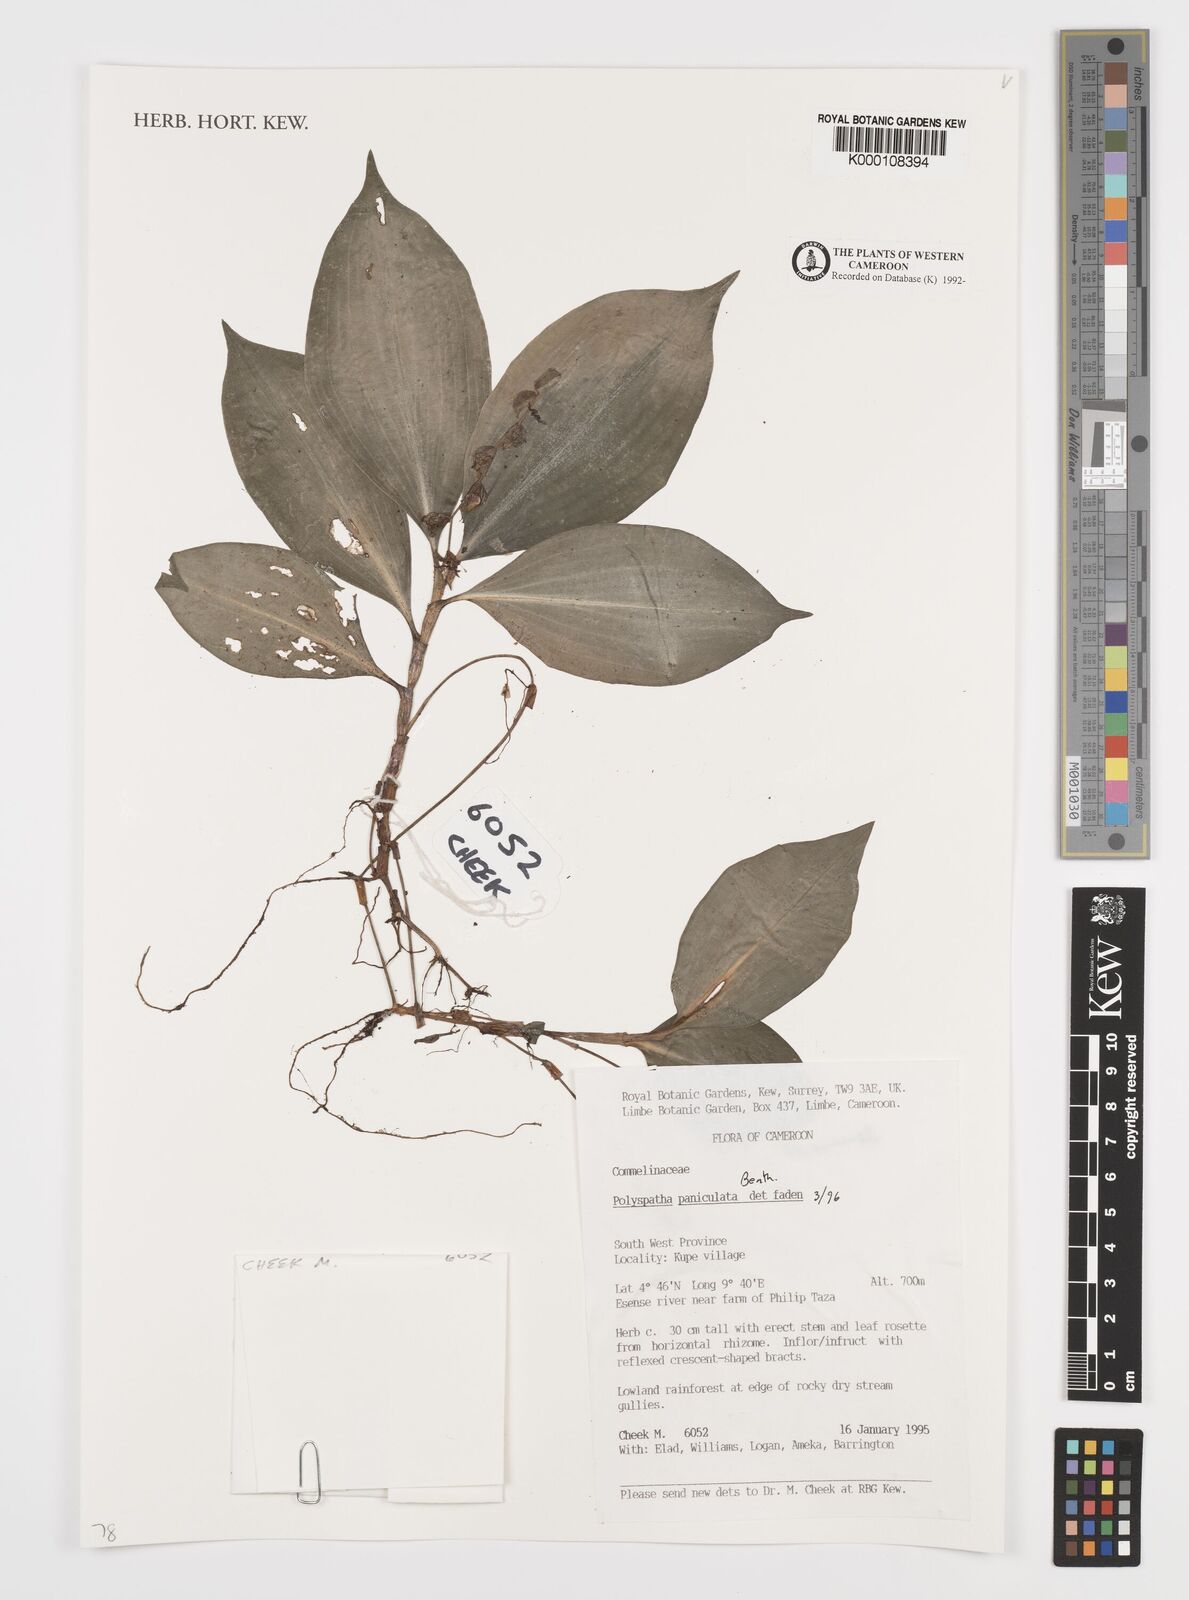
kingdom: Plantae
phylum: Tracheophyta
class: Liliopsida
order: Commelinales
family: Commelinaceae
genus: Polyspatha
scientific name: Polyspatha paniculata
